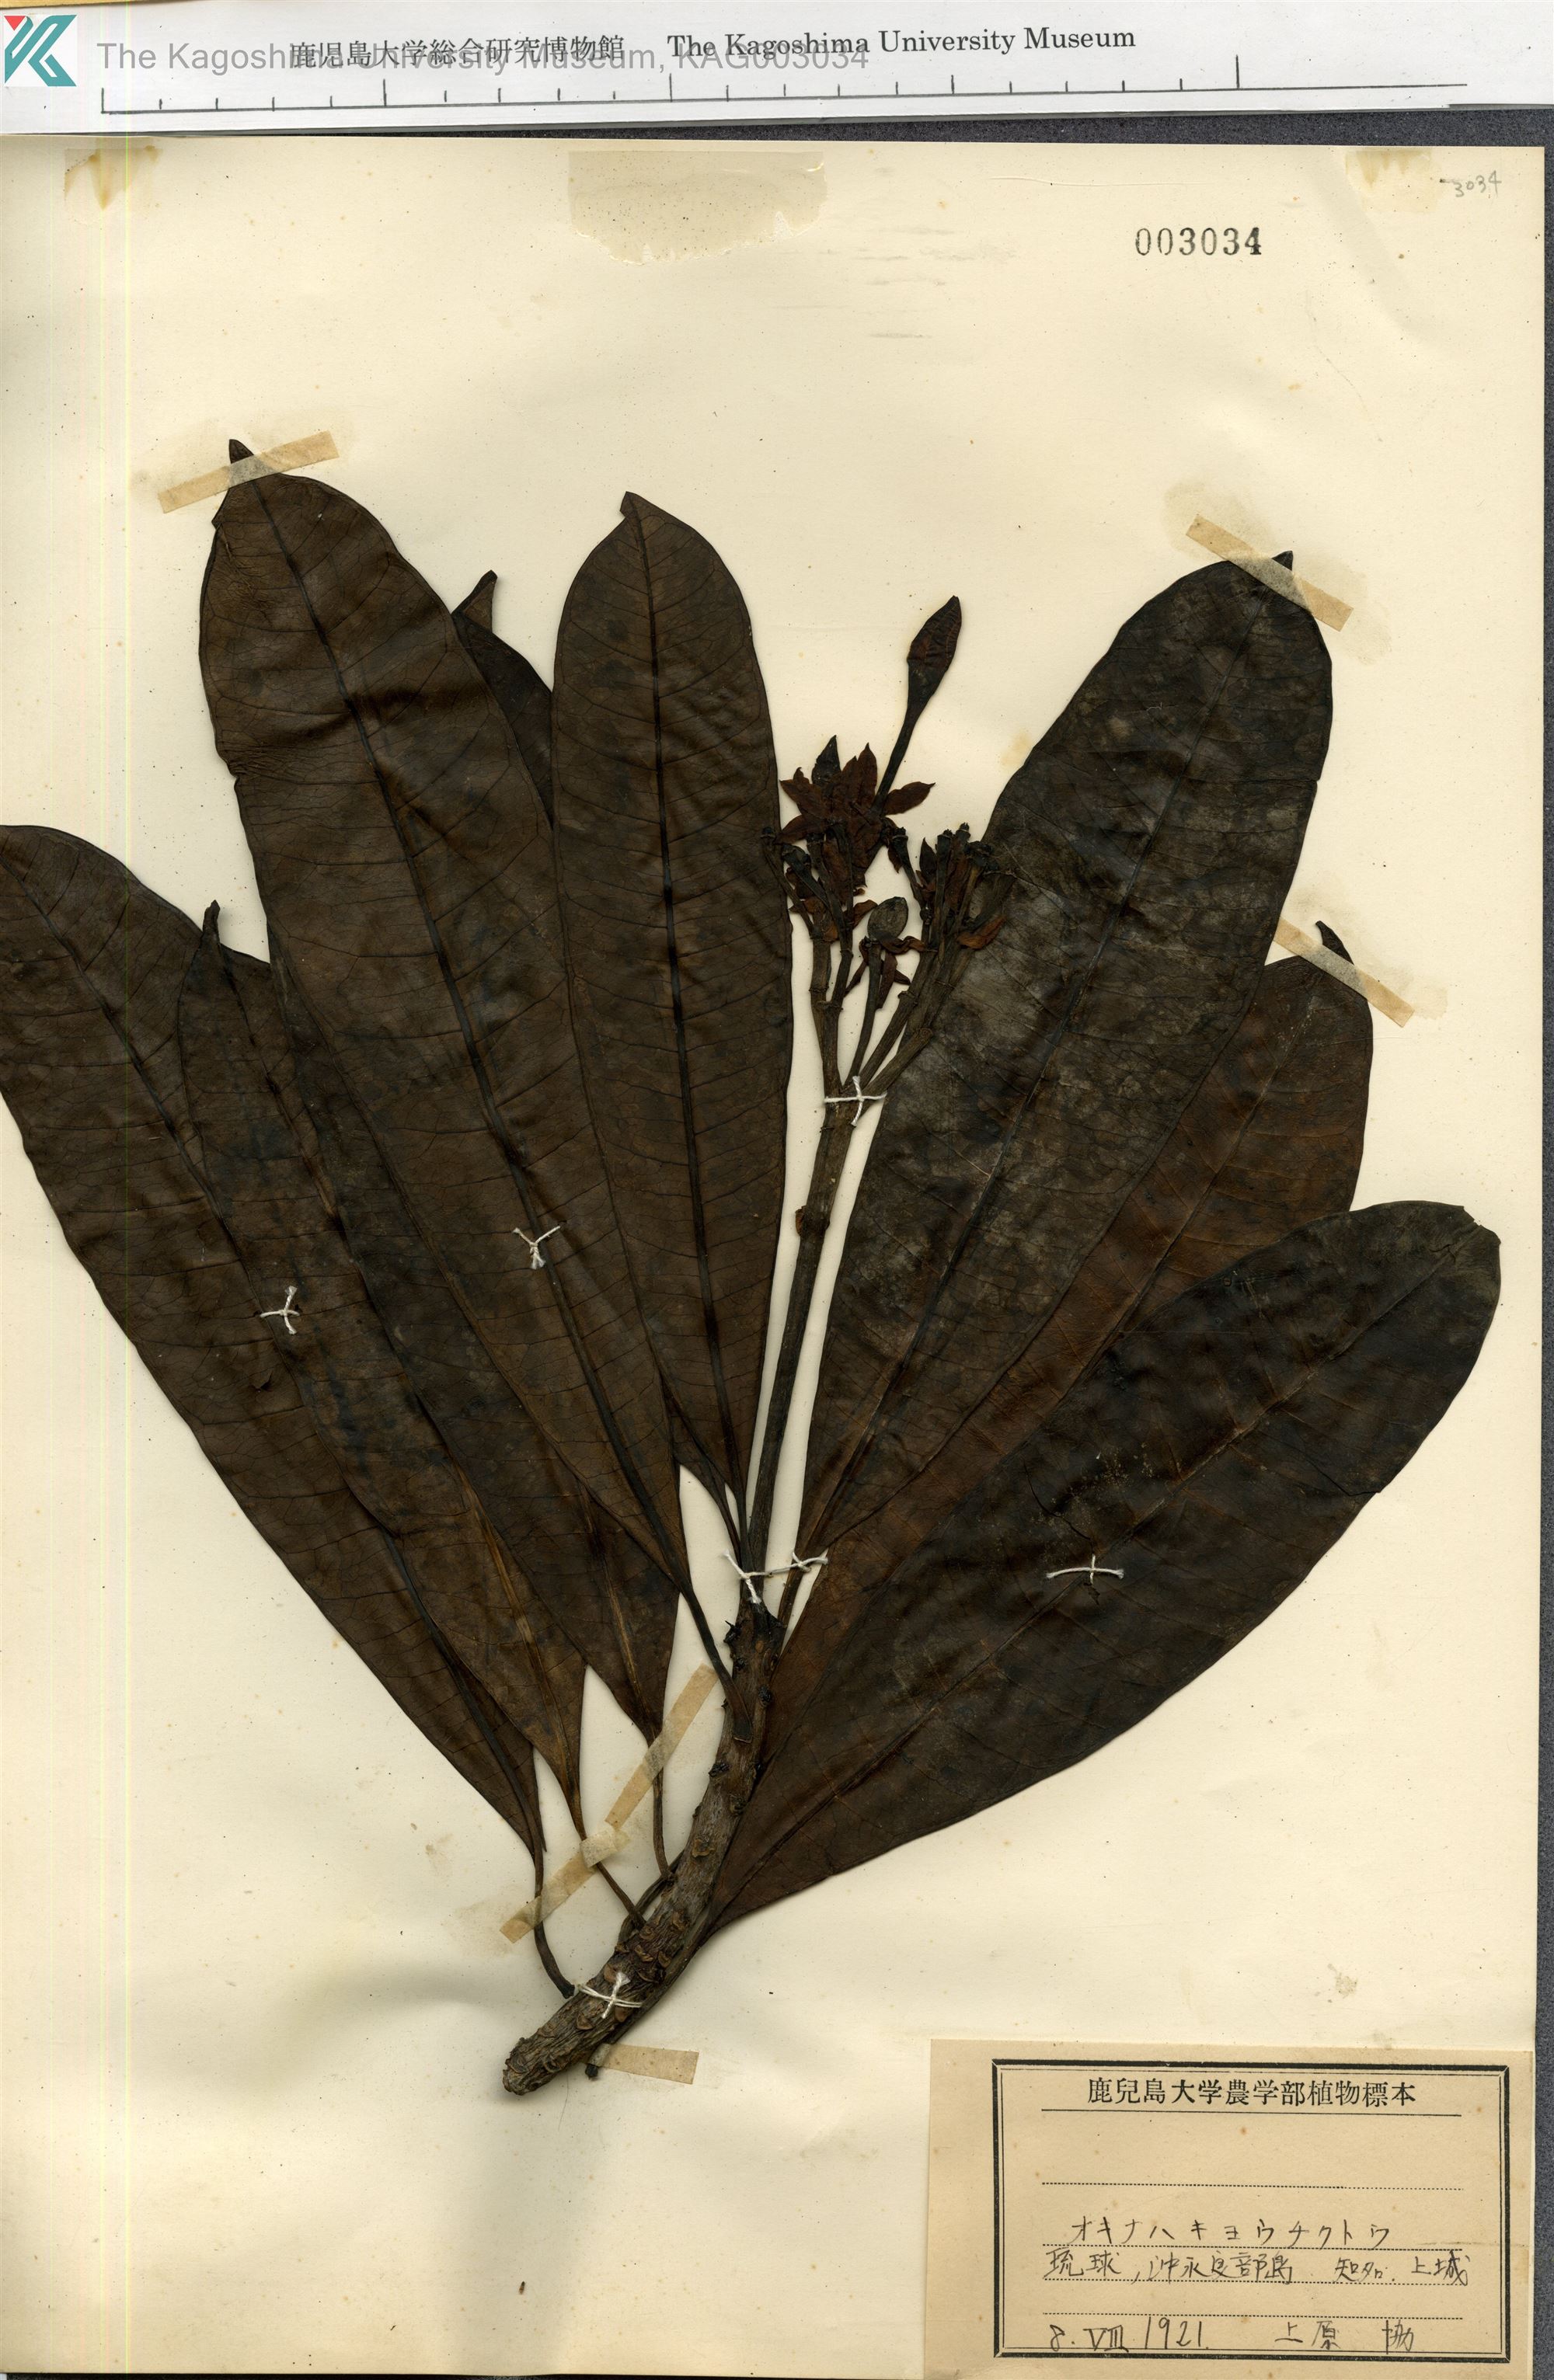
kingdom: Plantae
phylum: Tracheophyta
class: Magnoliopsida
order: Gentianales
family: Apocynaceae
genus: Cerbera
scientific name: Cerbera manghas
